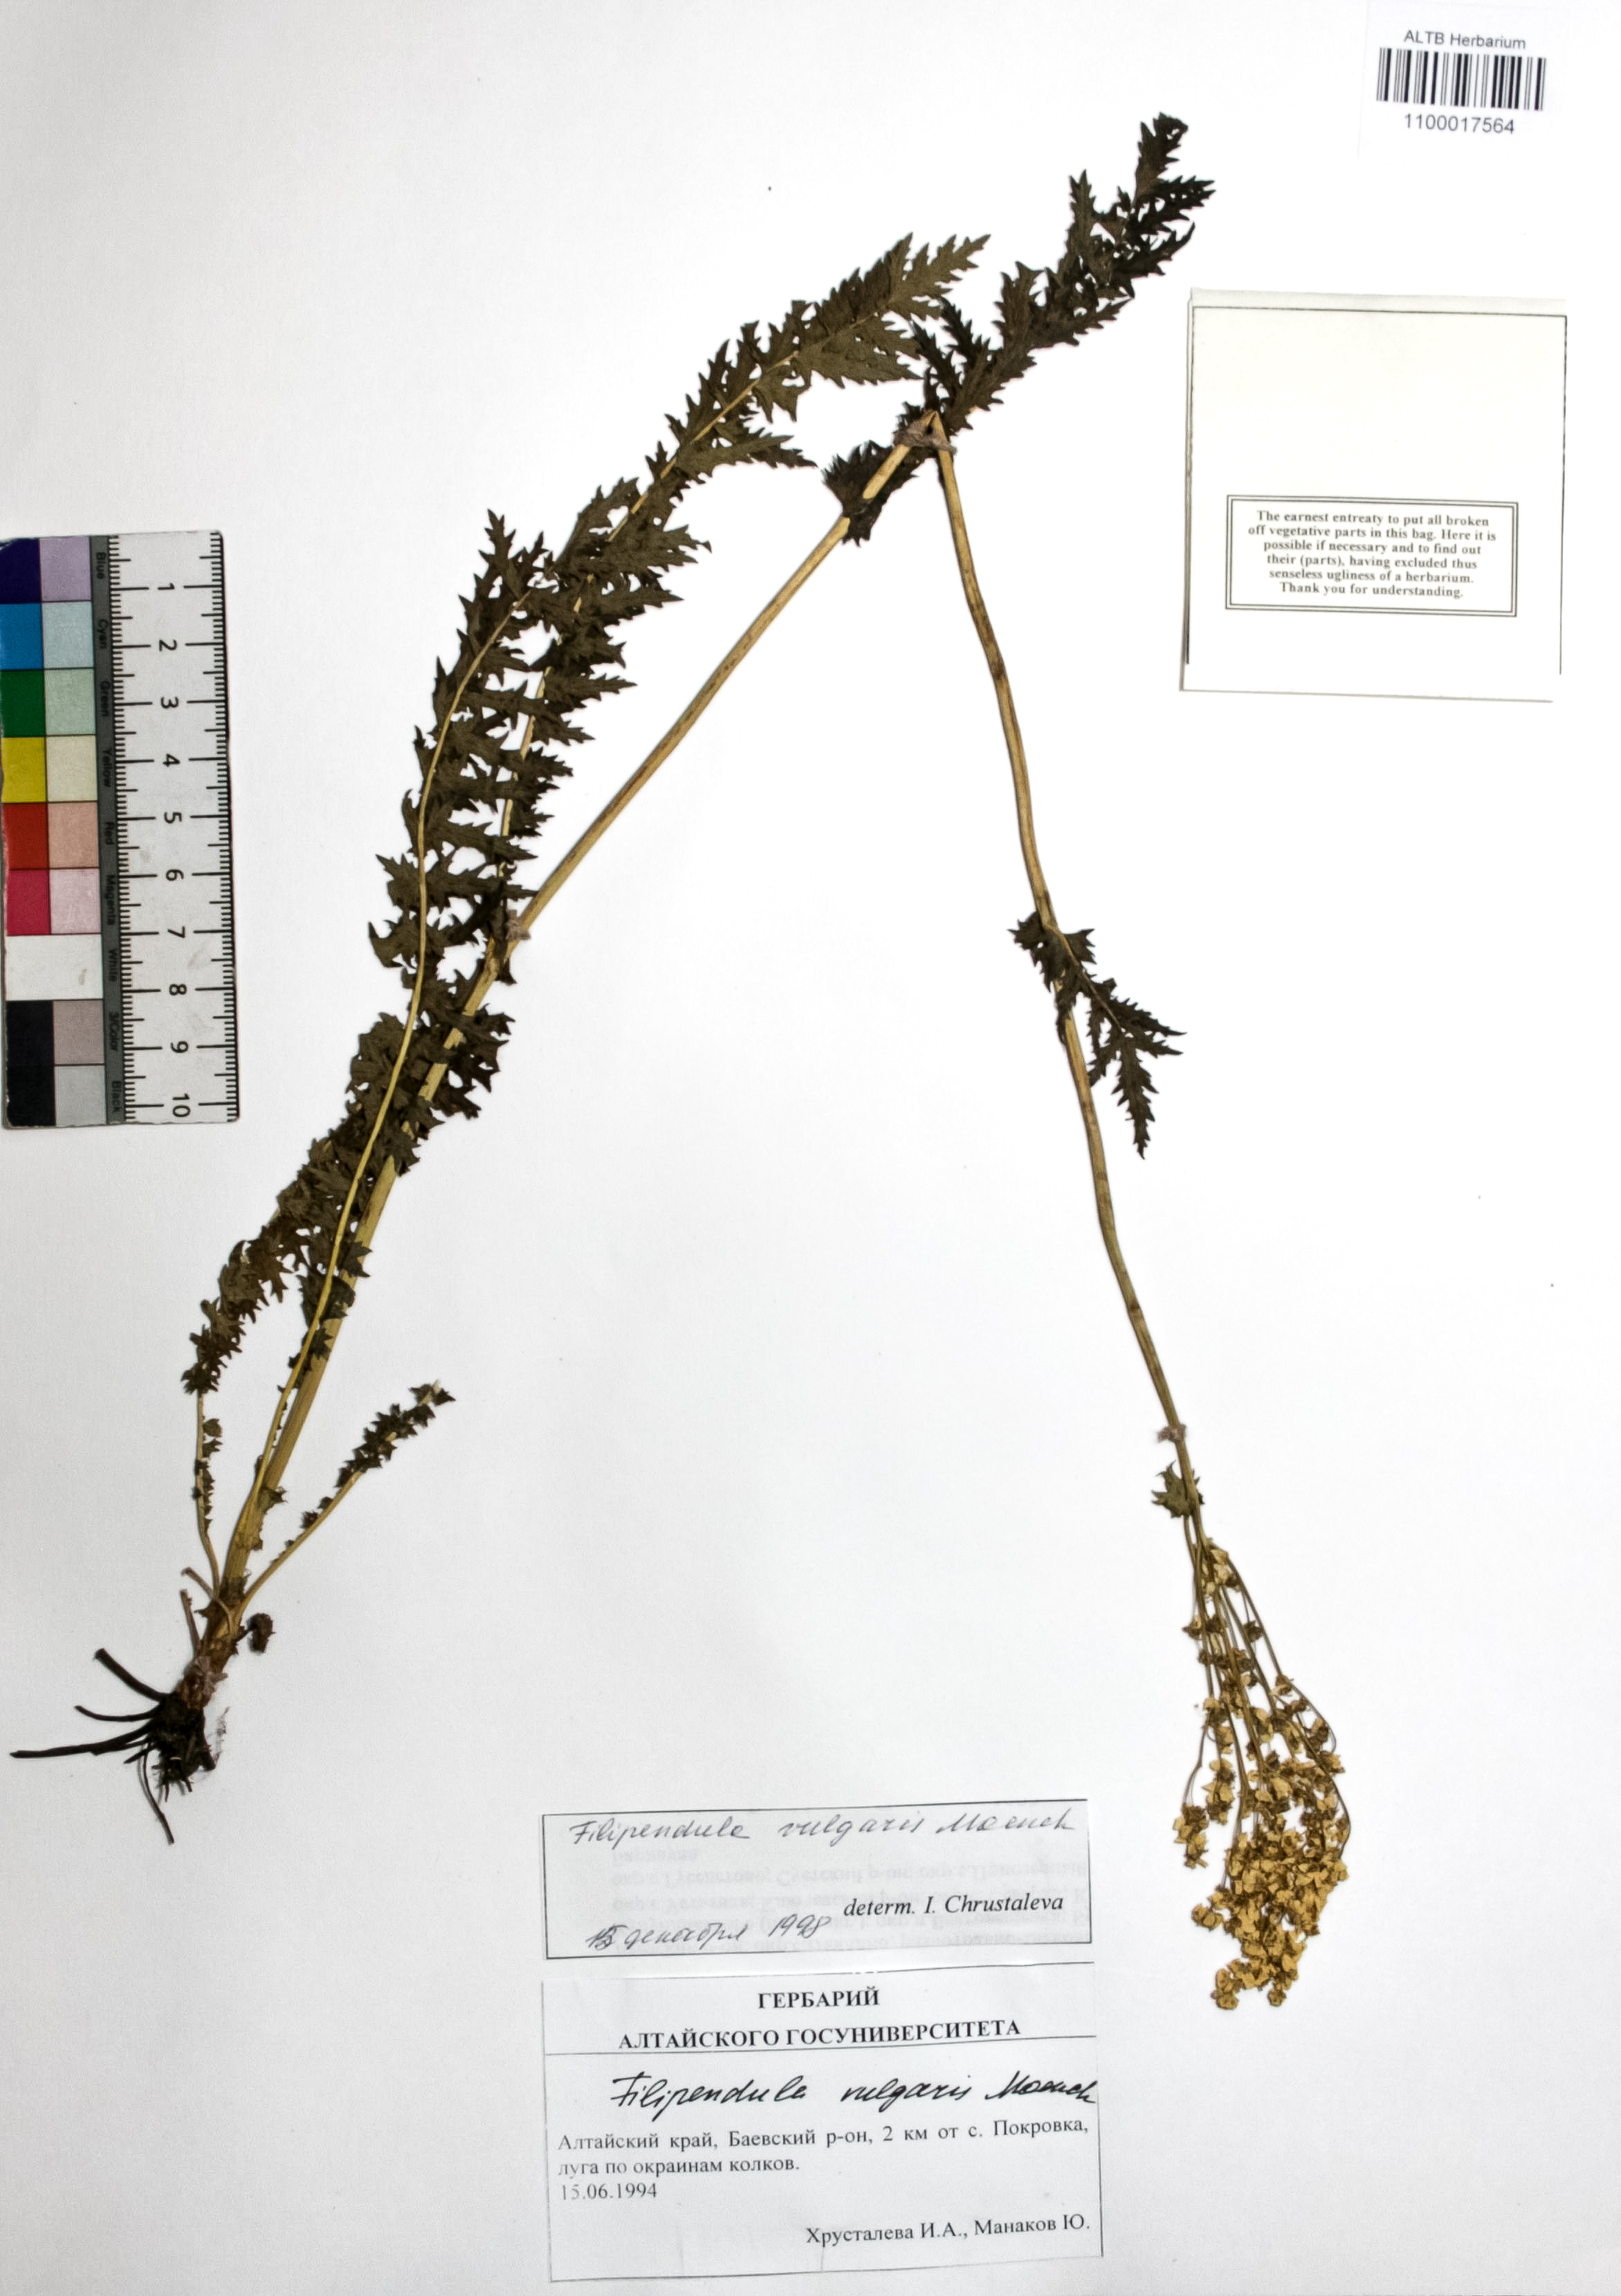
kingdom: Plantae
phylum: Tracheophyta
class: Magnoliopsida
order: Rosales
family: Rosaceae
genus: Filipendula
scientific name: Filipendula vulgaris
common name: Dropwort
